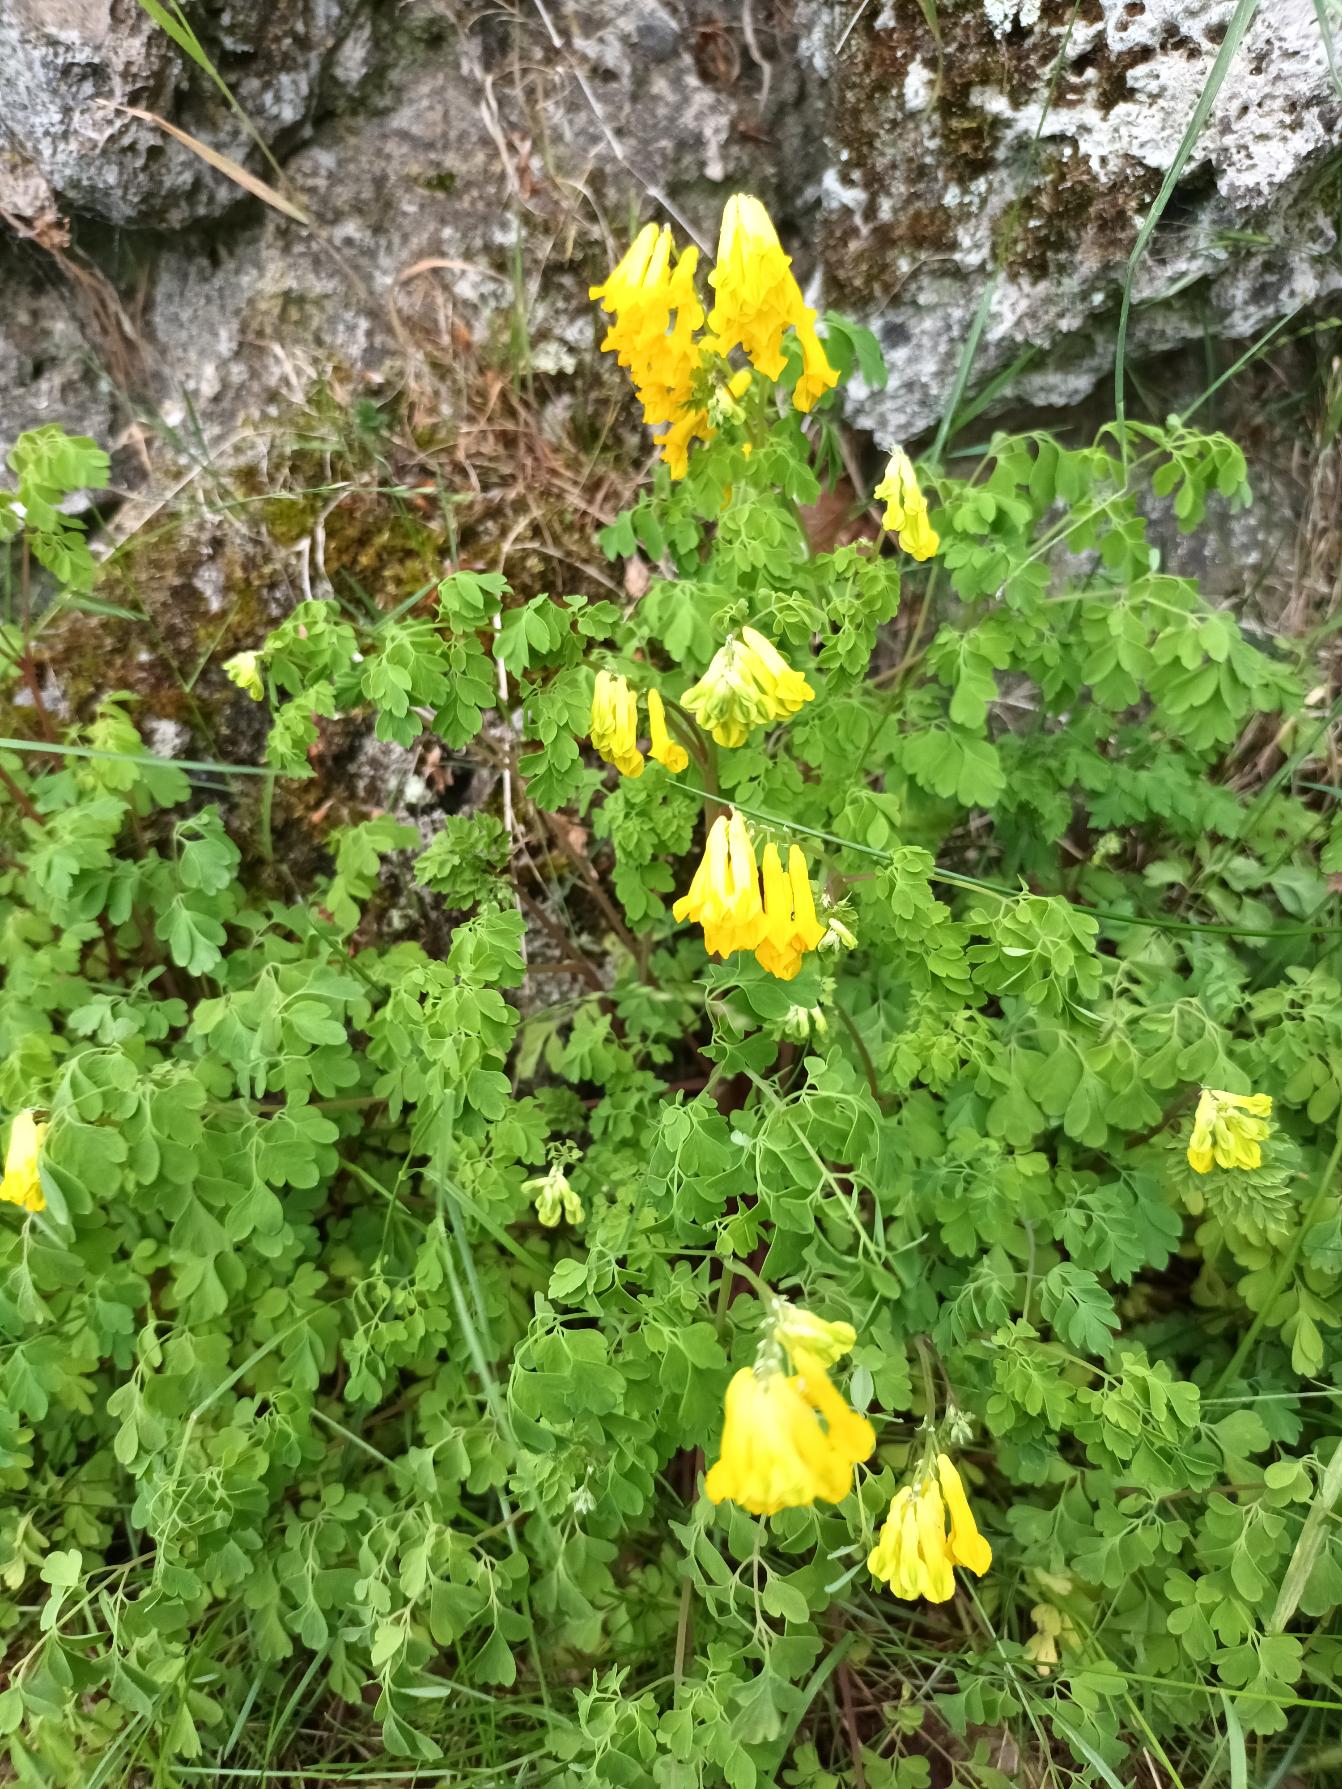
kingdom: Plantae
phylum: Tracheophyta
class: Magnoliopsida
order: Ranunculales
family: Papaveraceae
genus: Pseudofumaria
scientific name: Pseudofumaria lutea
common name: Gul lærkespore
